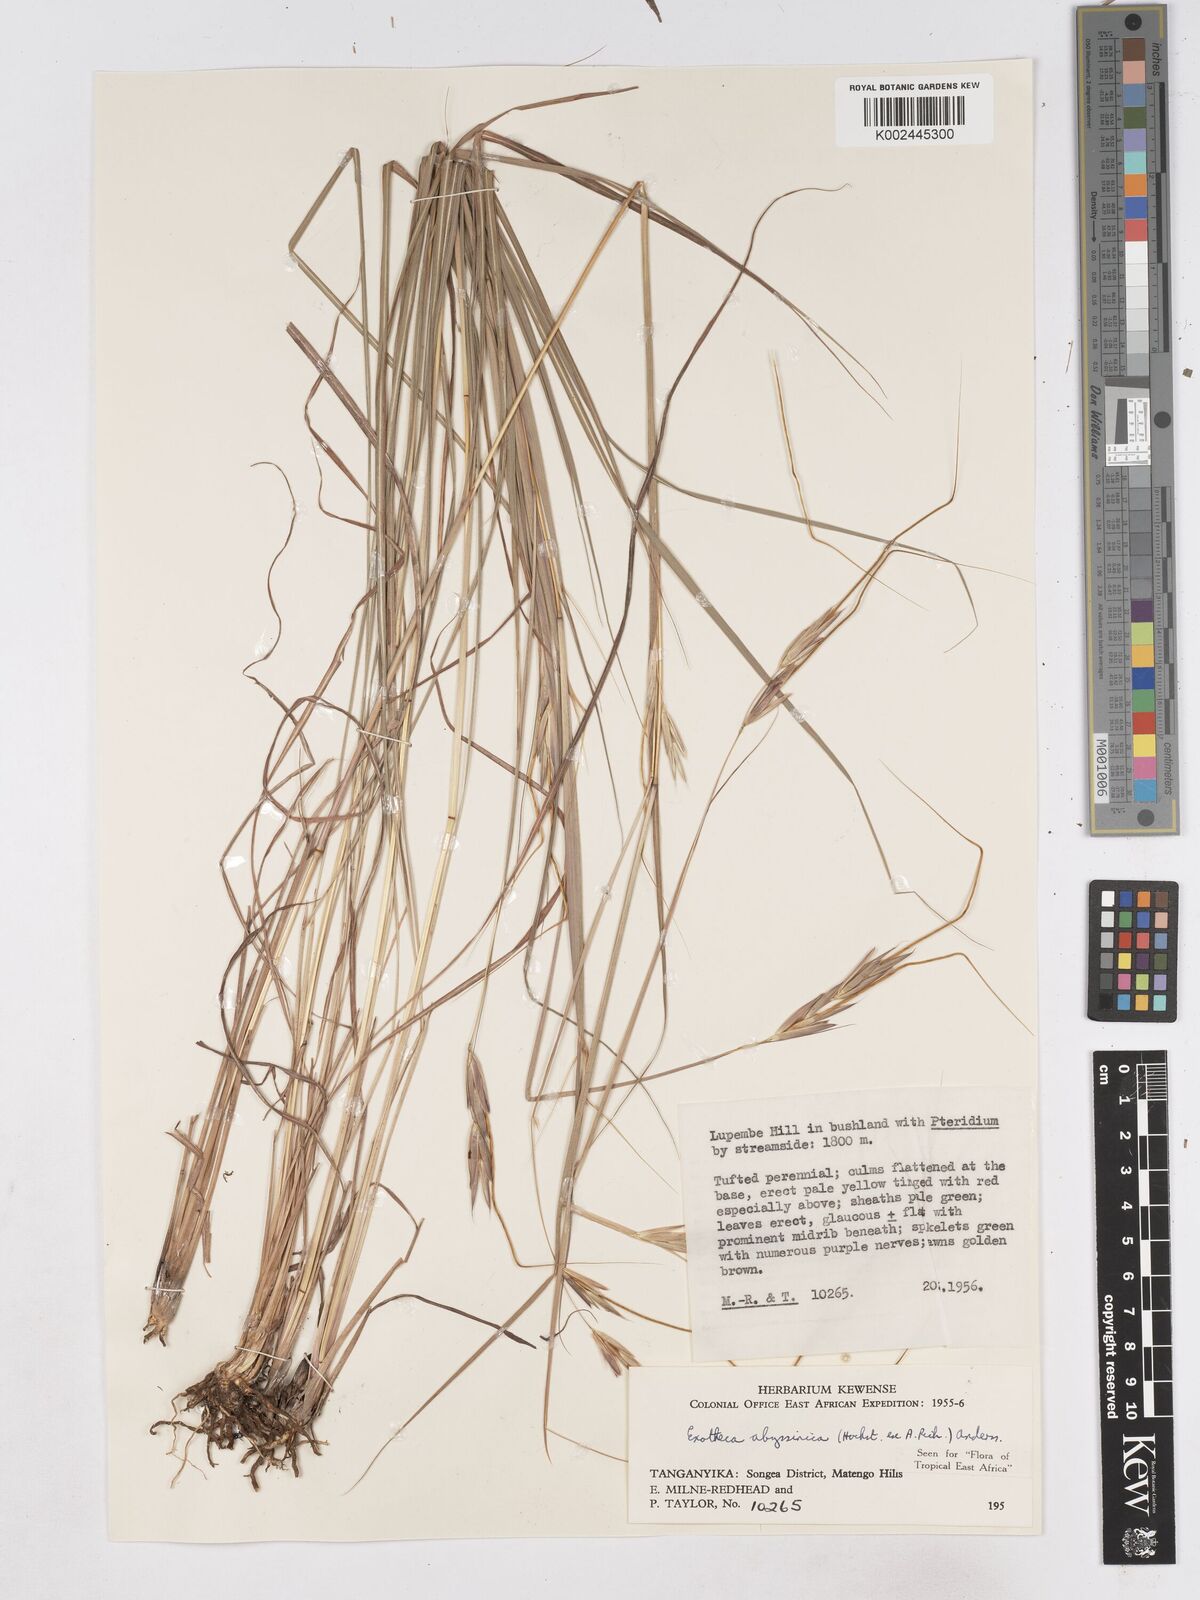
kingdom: Plantae
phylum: Tracheophyta
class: Liliopsida
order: Poales
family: Poaceae
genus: Exotheca
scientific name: Exotheca abyssinica
